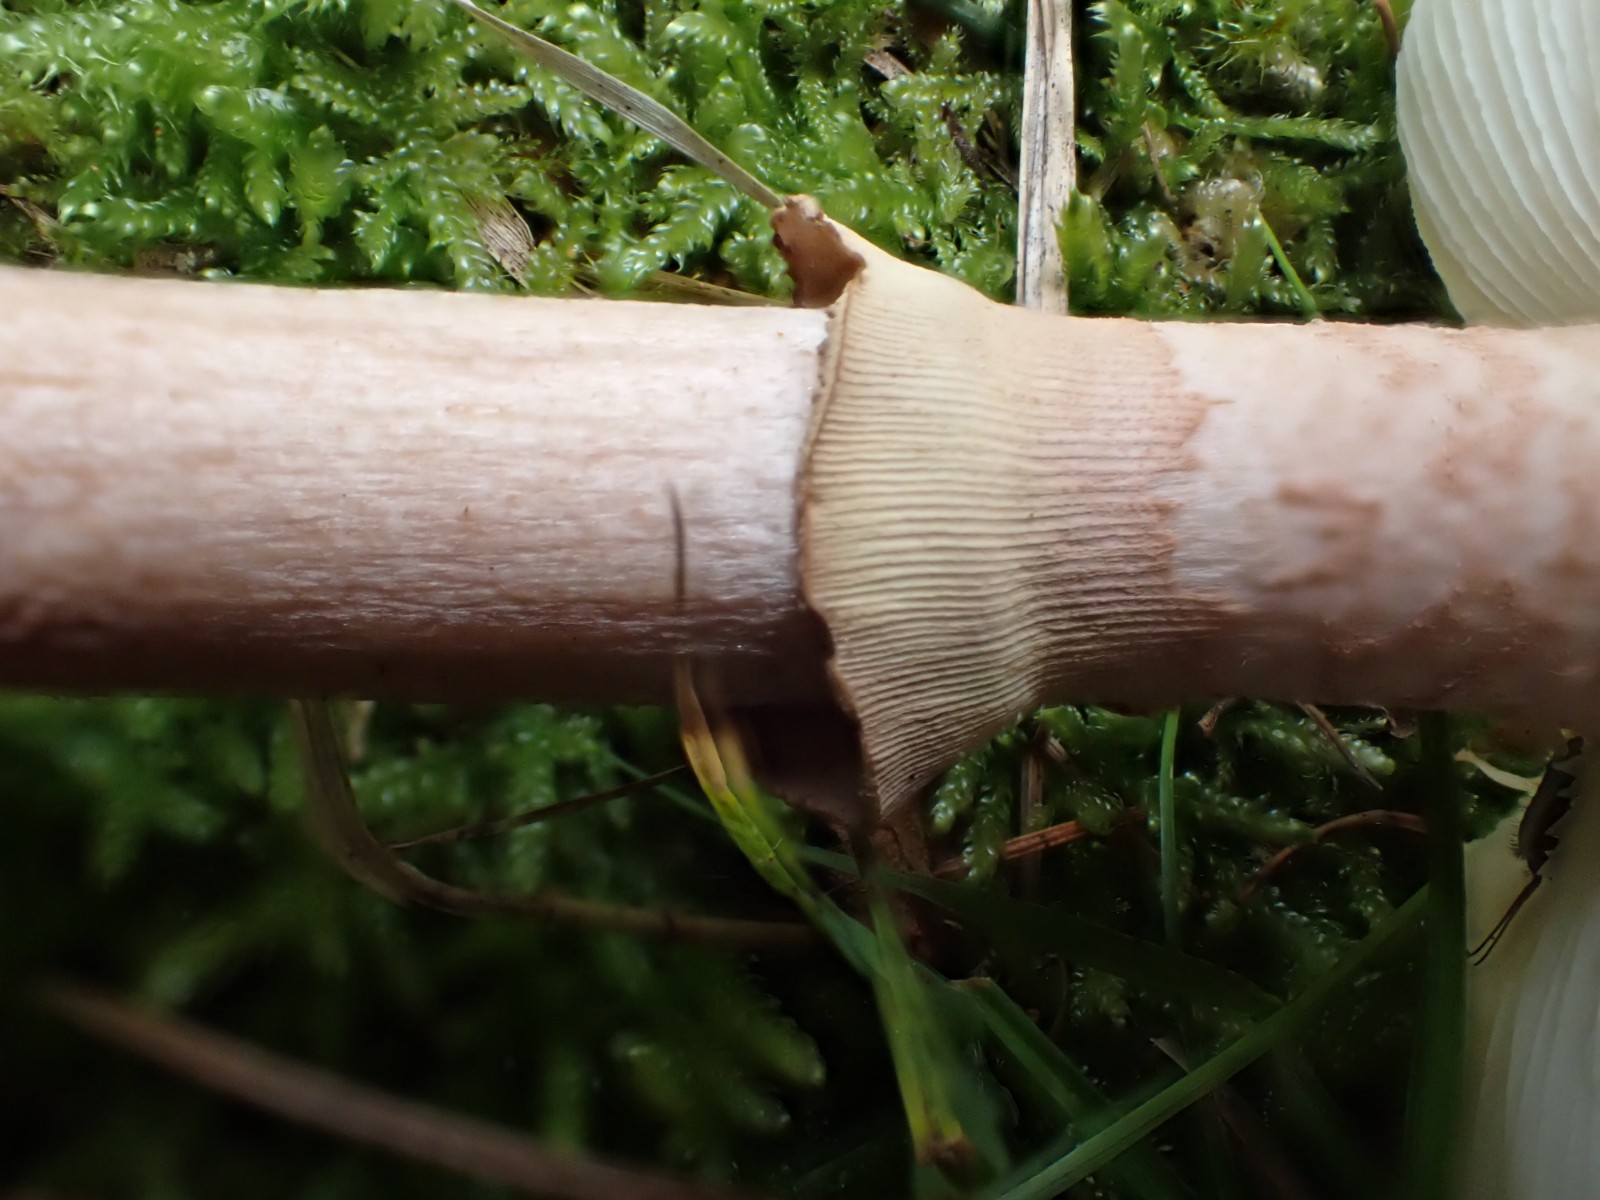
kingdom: Fungi
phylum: Basidiomycota
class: Agaricomycetes
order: Agaricales
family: Amanitaceae
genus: Amanita
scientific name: Amanita rubescens
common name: Blusher
